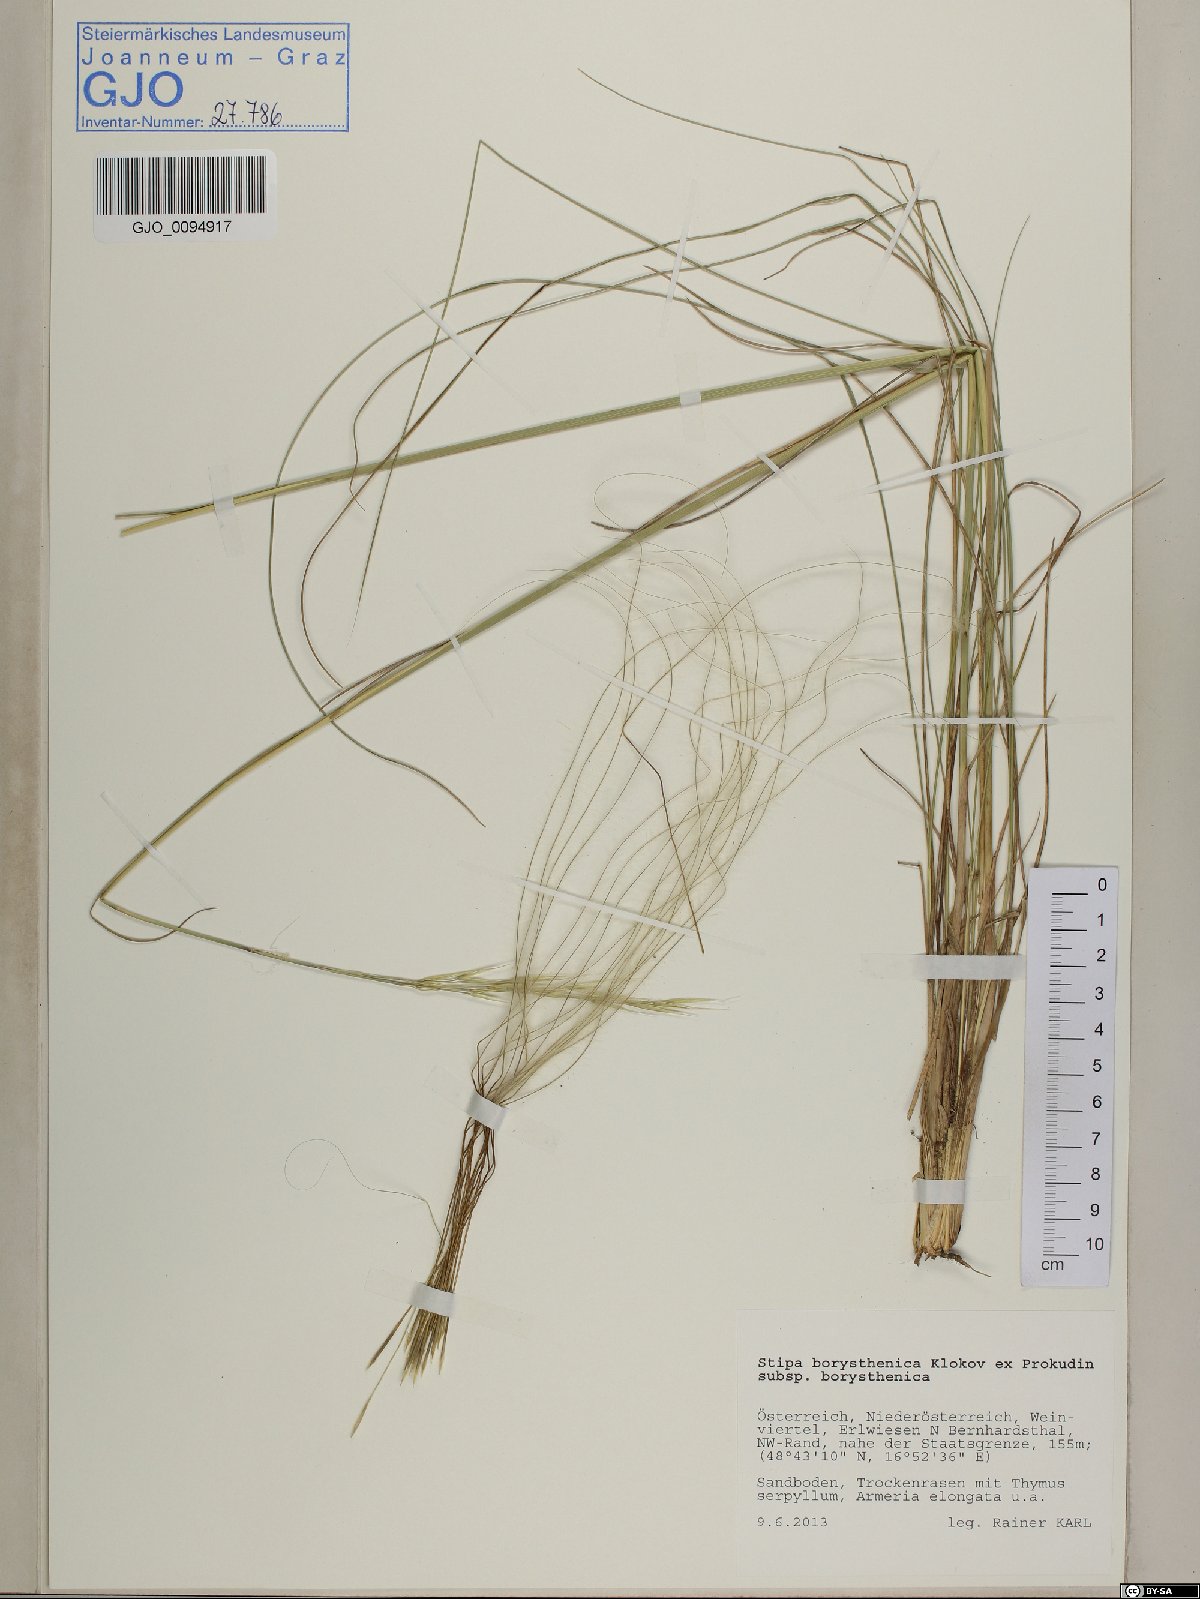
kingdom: Plantae
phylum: Tracheophyta
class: Liliopsida
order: Poales
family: Poaceae
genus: Stipa
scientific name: Stipa borysthenica
